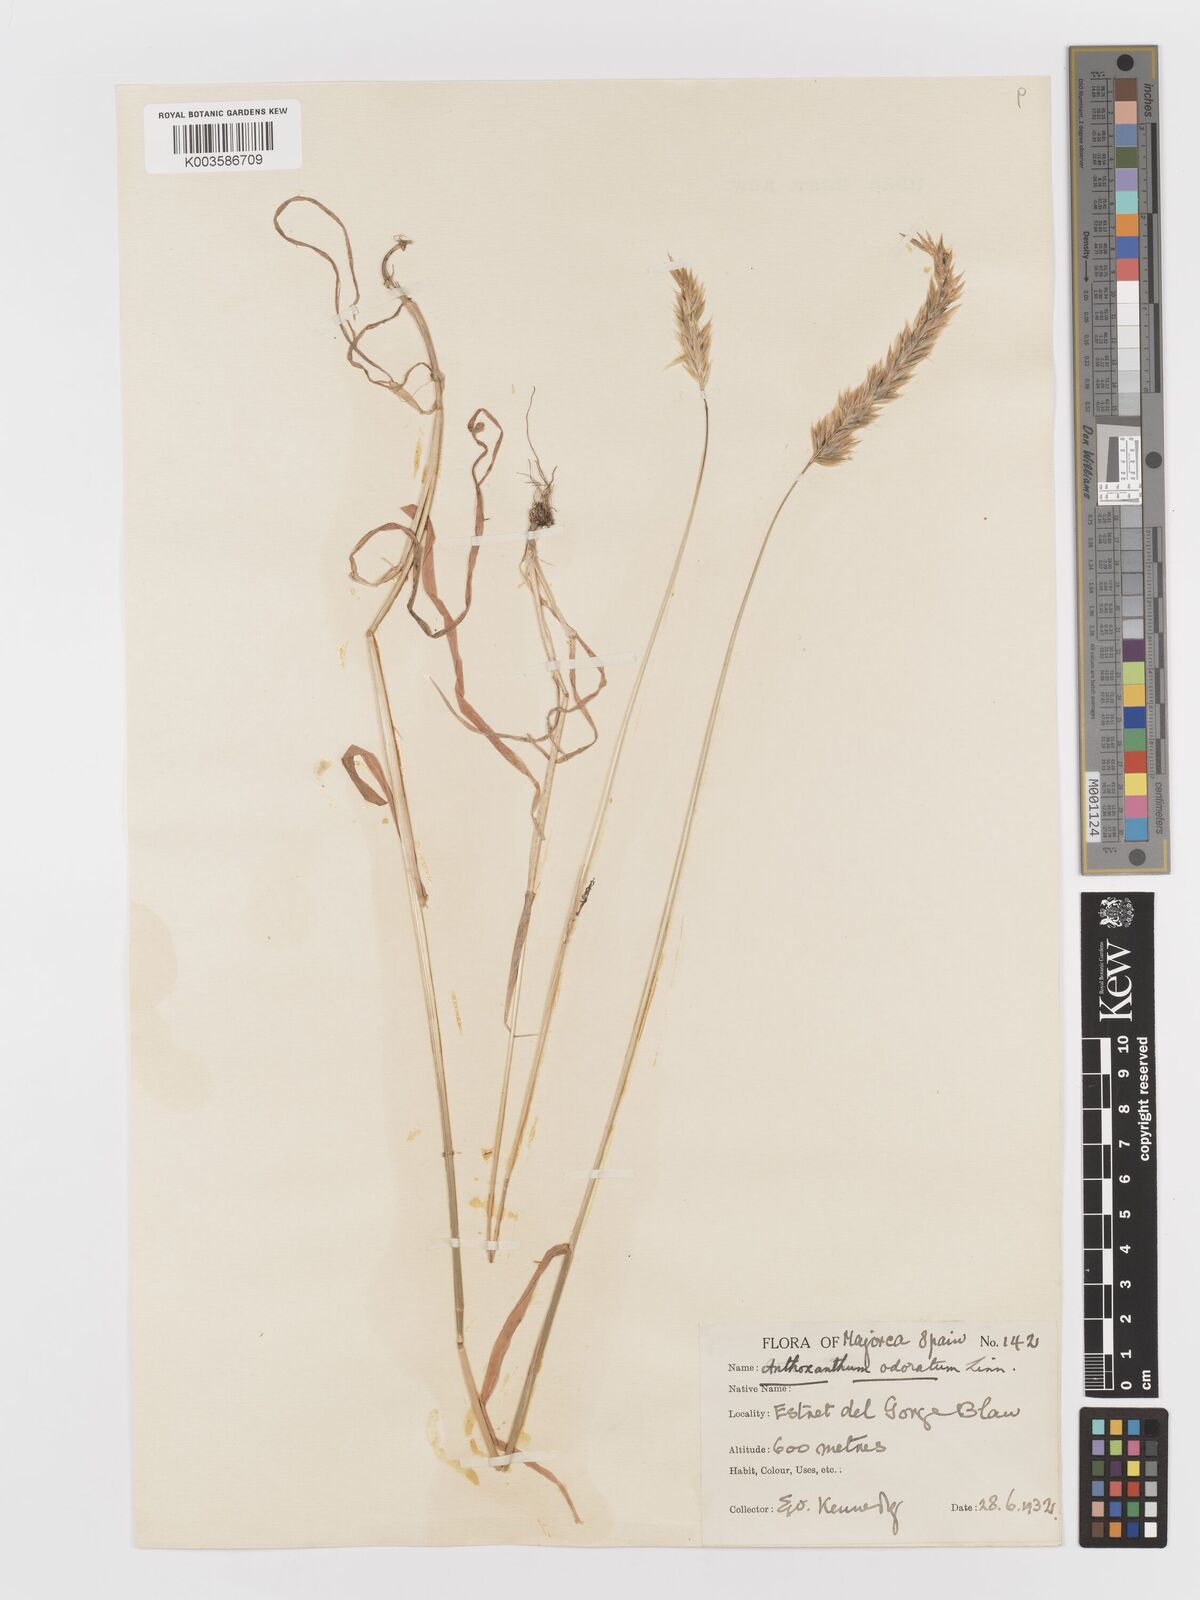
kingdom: Plantae
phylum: Tracheophyta
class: Liliopsida
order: Poales
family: Poaceae
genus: Anthoxanthum
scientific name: Anthoxanthum odoratum
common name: Sweet vernalgrass
